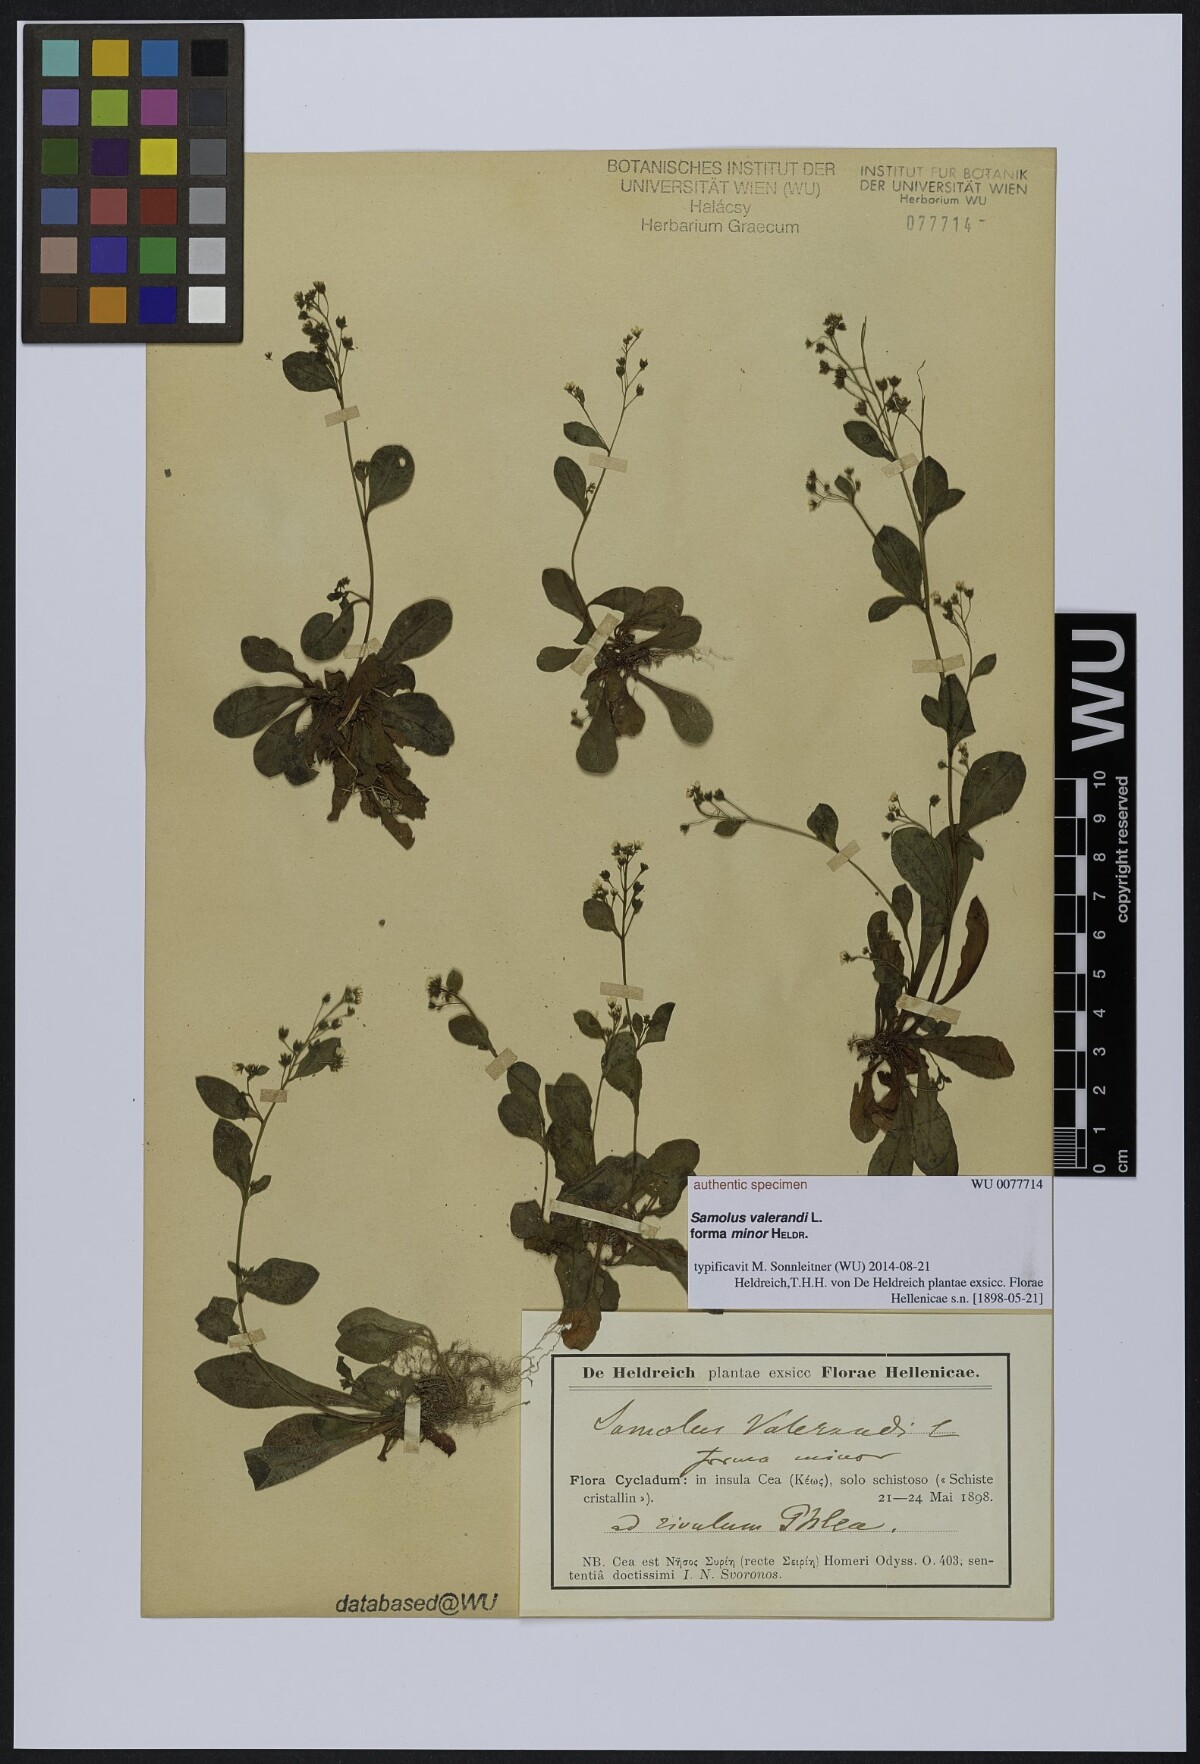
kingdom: Plantae
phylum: Tracheophyta
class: Magnoliopsida
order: Ericales
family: Primulaceae
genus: Samolus
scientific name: Samolus valerandi
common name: Brookweed
